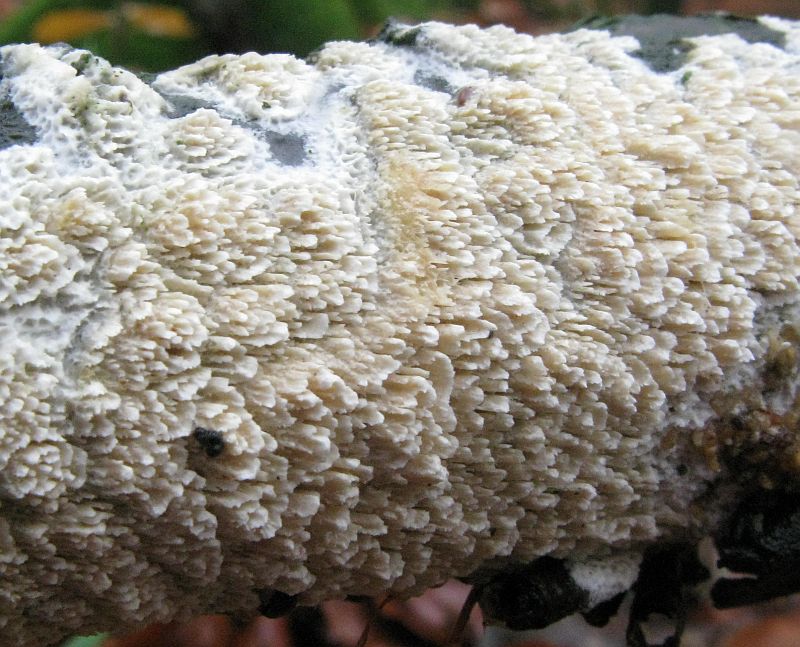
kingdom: Fungi
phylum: Basidiomycota
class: Agaricomycetes
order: Hymenochaetales
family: Schizoporaceae
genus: Schizopora
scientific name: Schizopora paradoxa
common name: hvid tandsvamp
